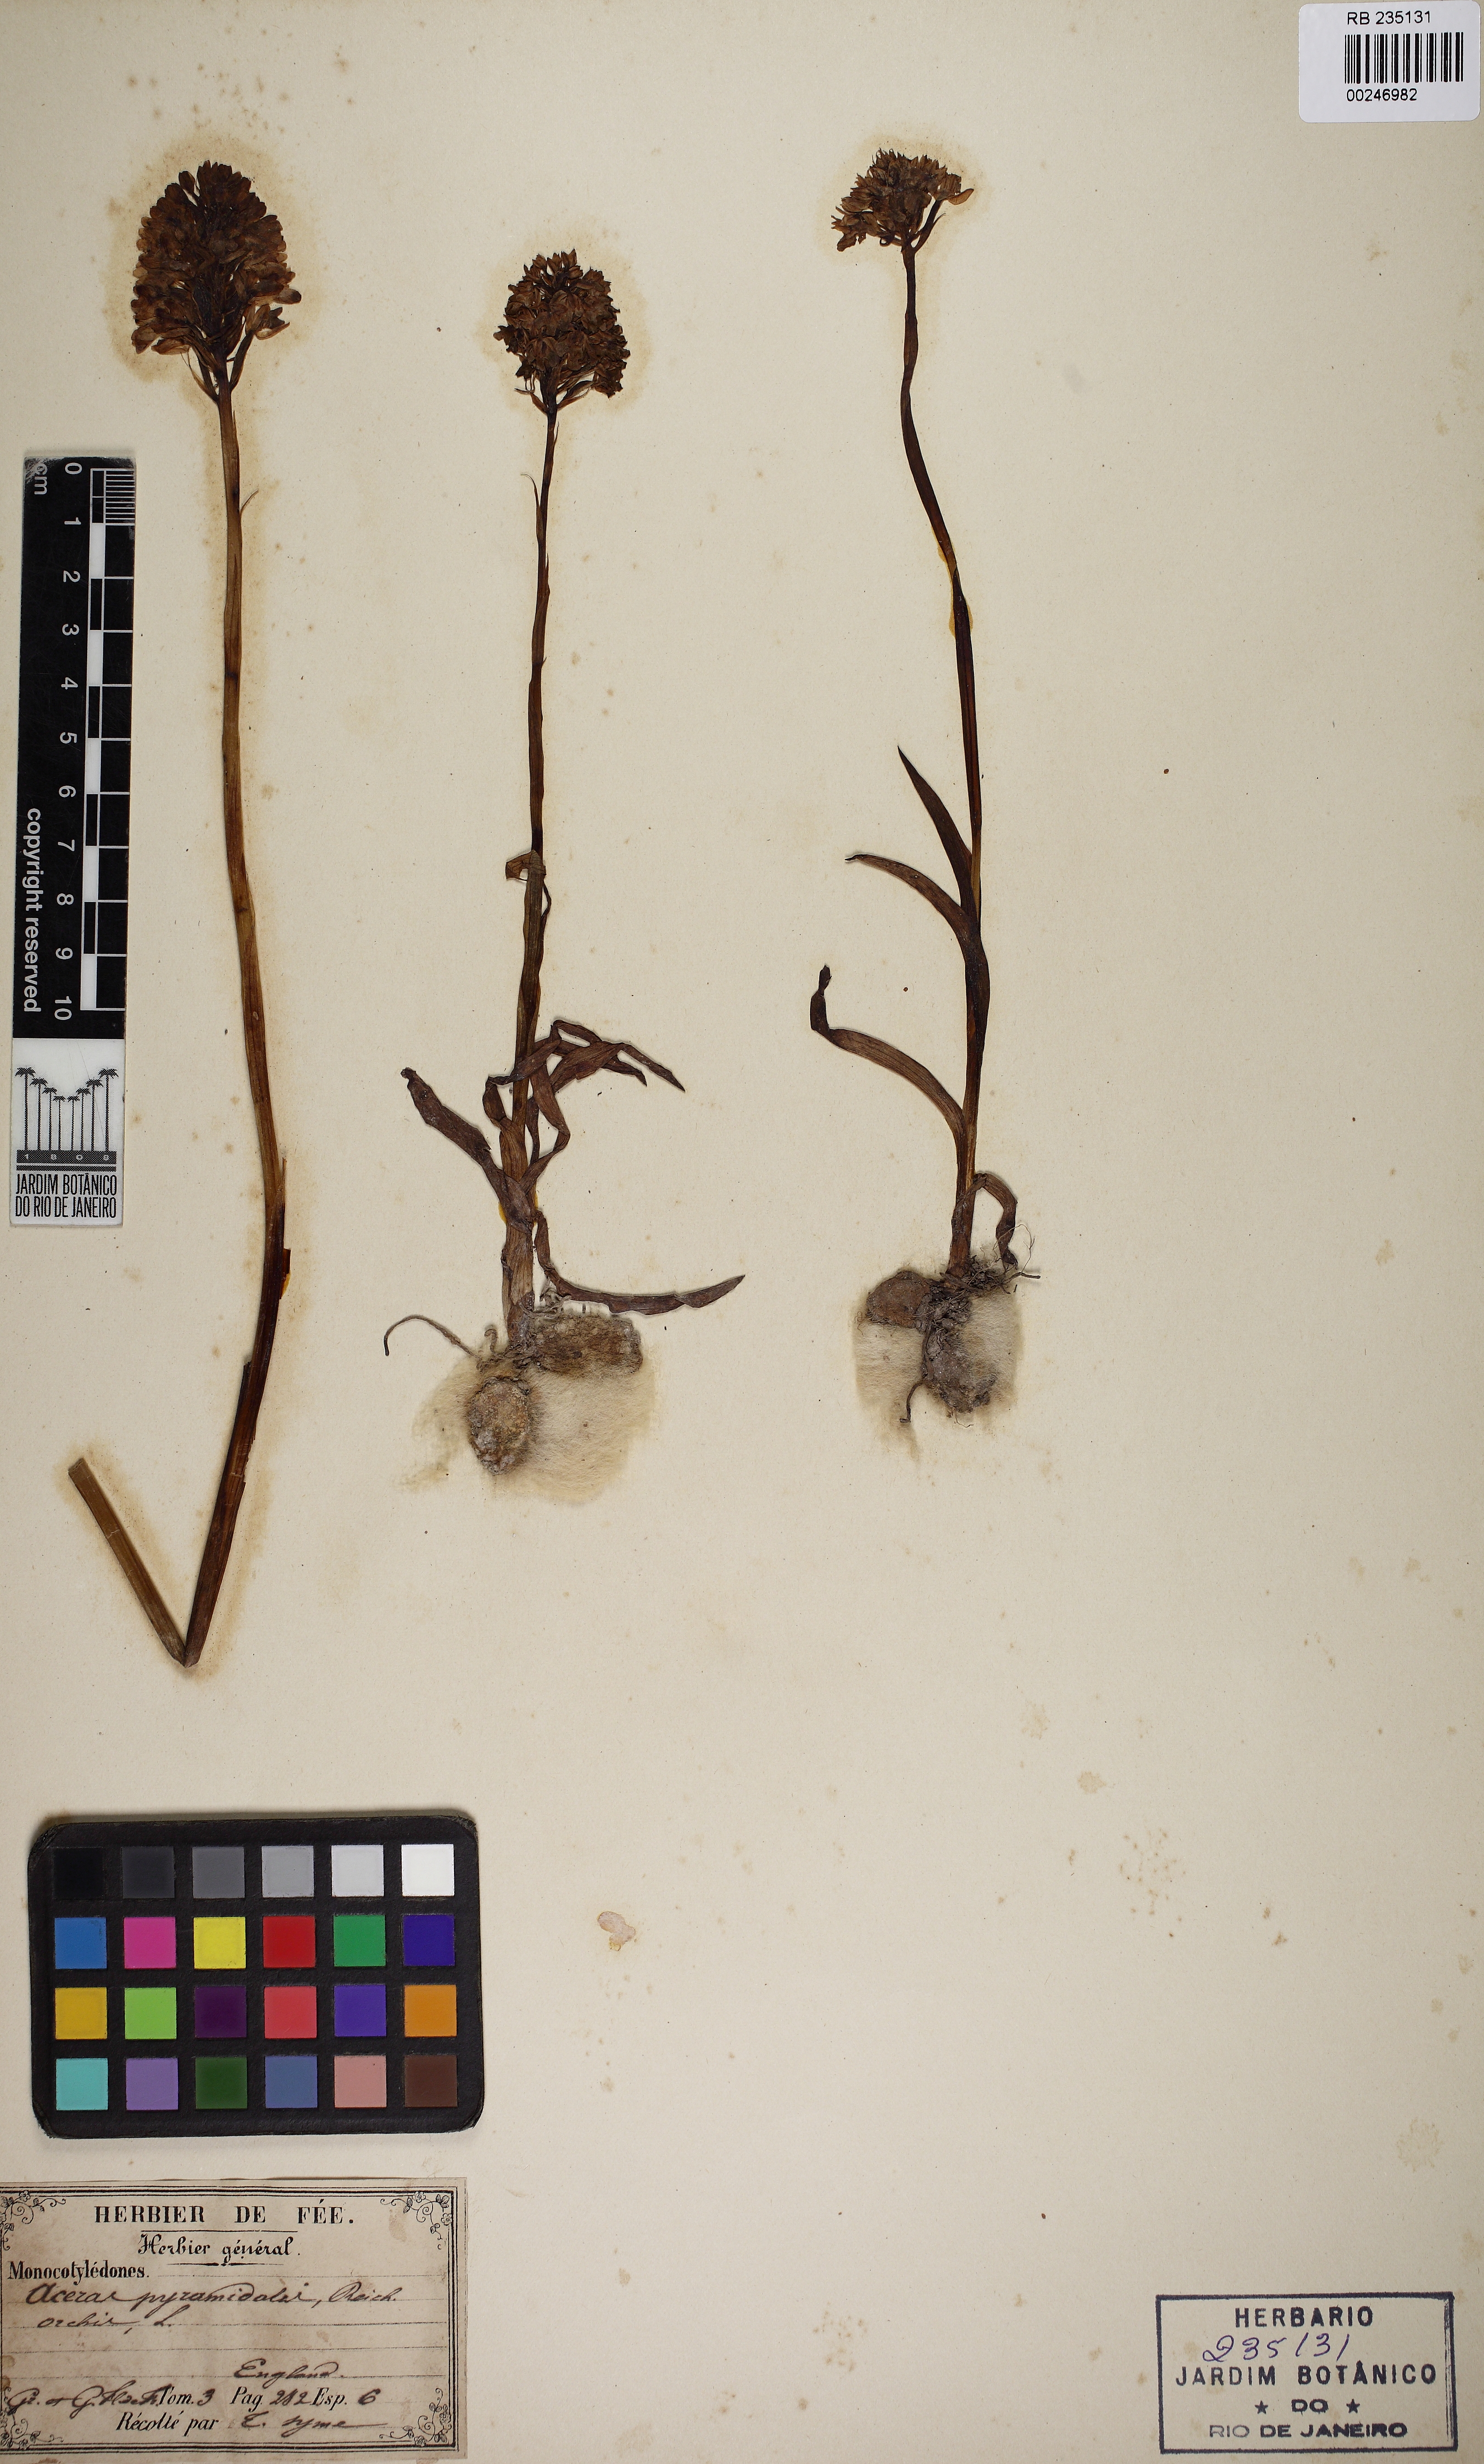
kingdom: Plantae
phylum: Tracheophyta
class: Liliopsida
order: Asparagales
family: Orchidaceae
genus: Anacamptis
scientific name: Anacamptis pyramidalis
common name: Pyramidal orchid
